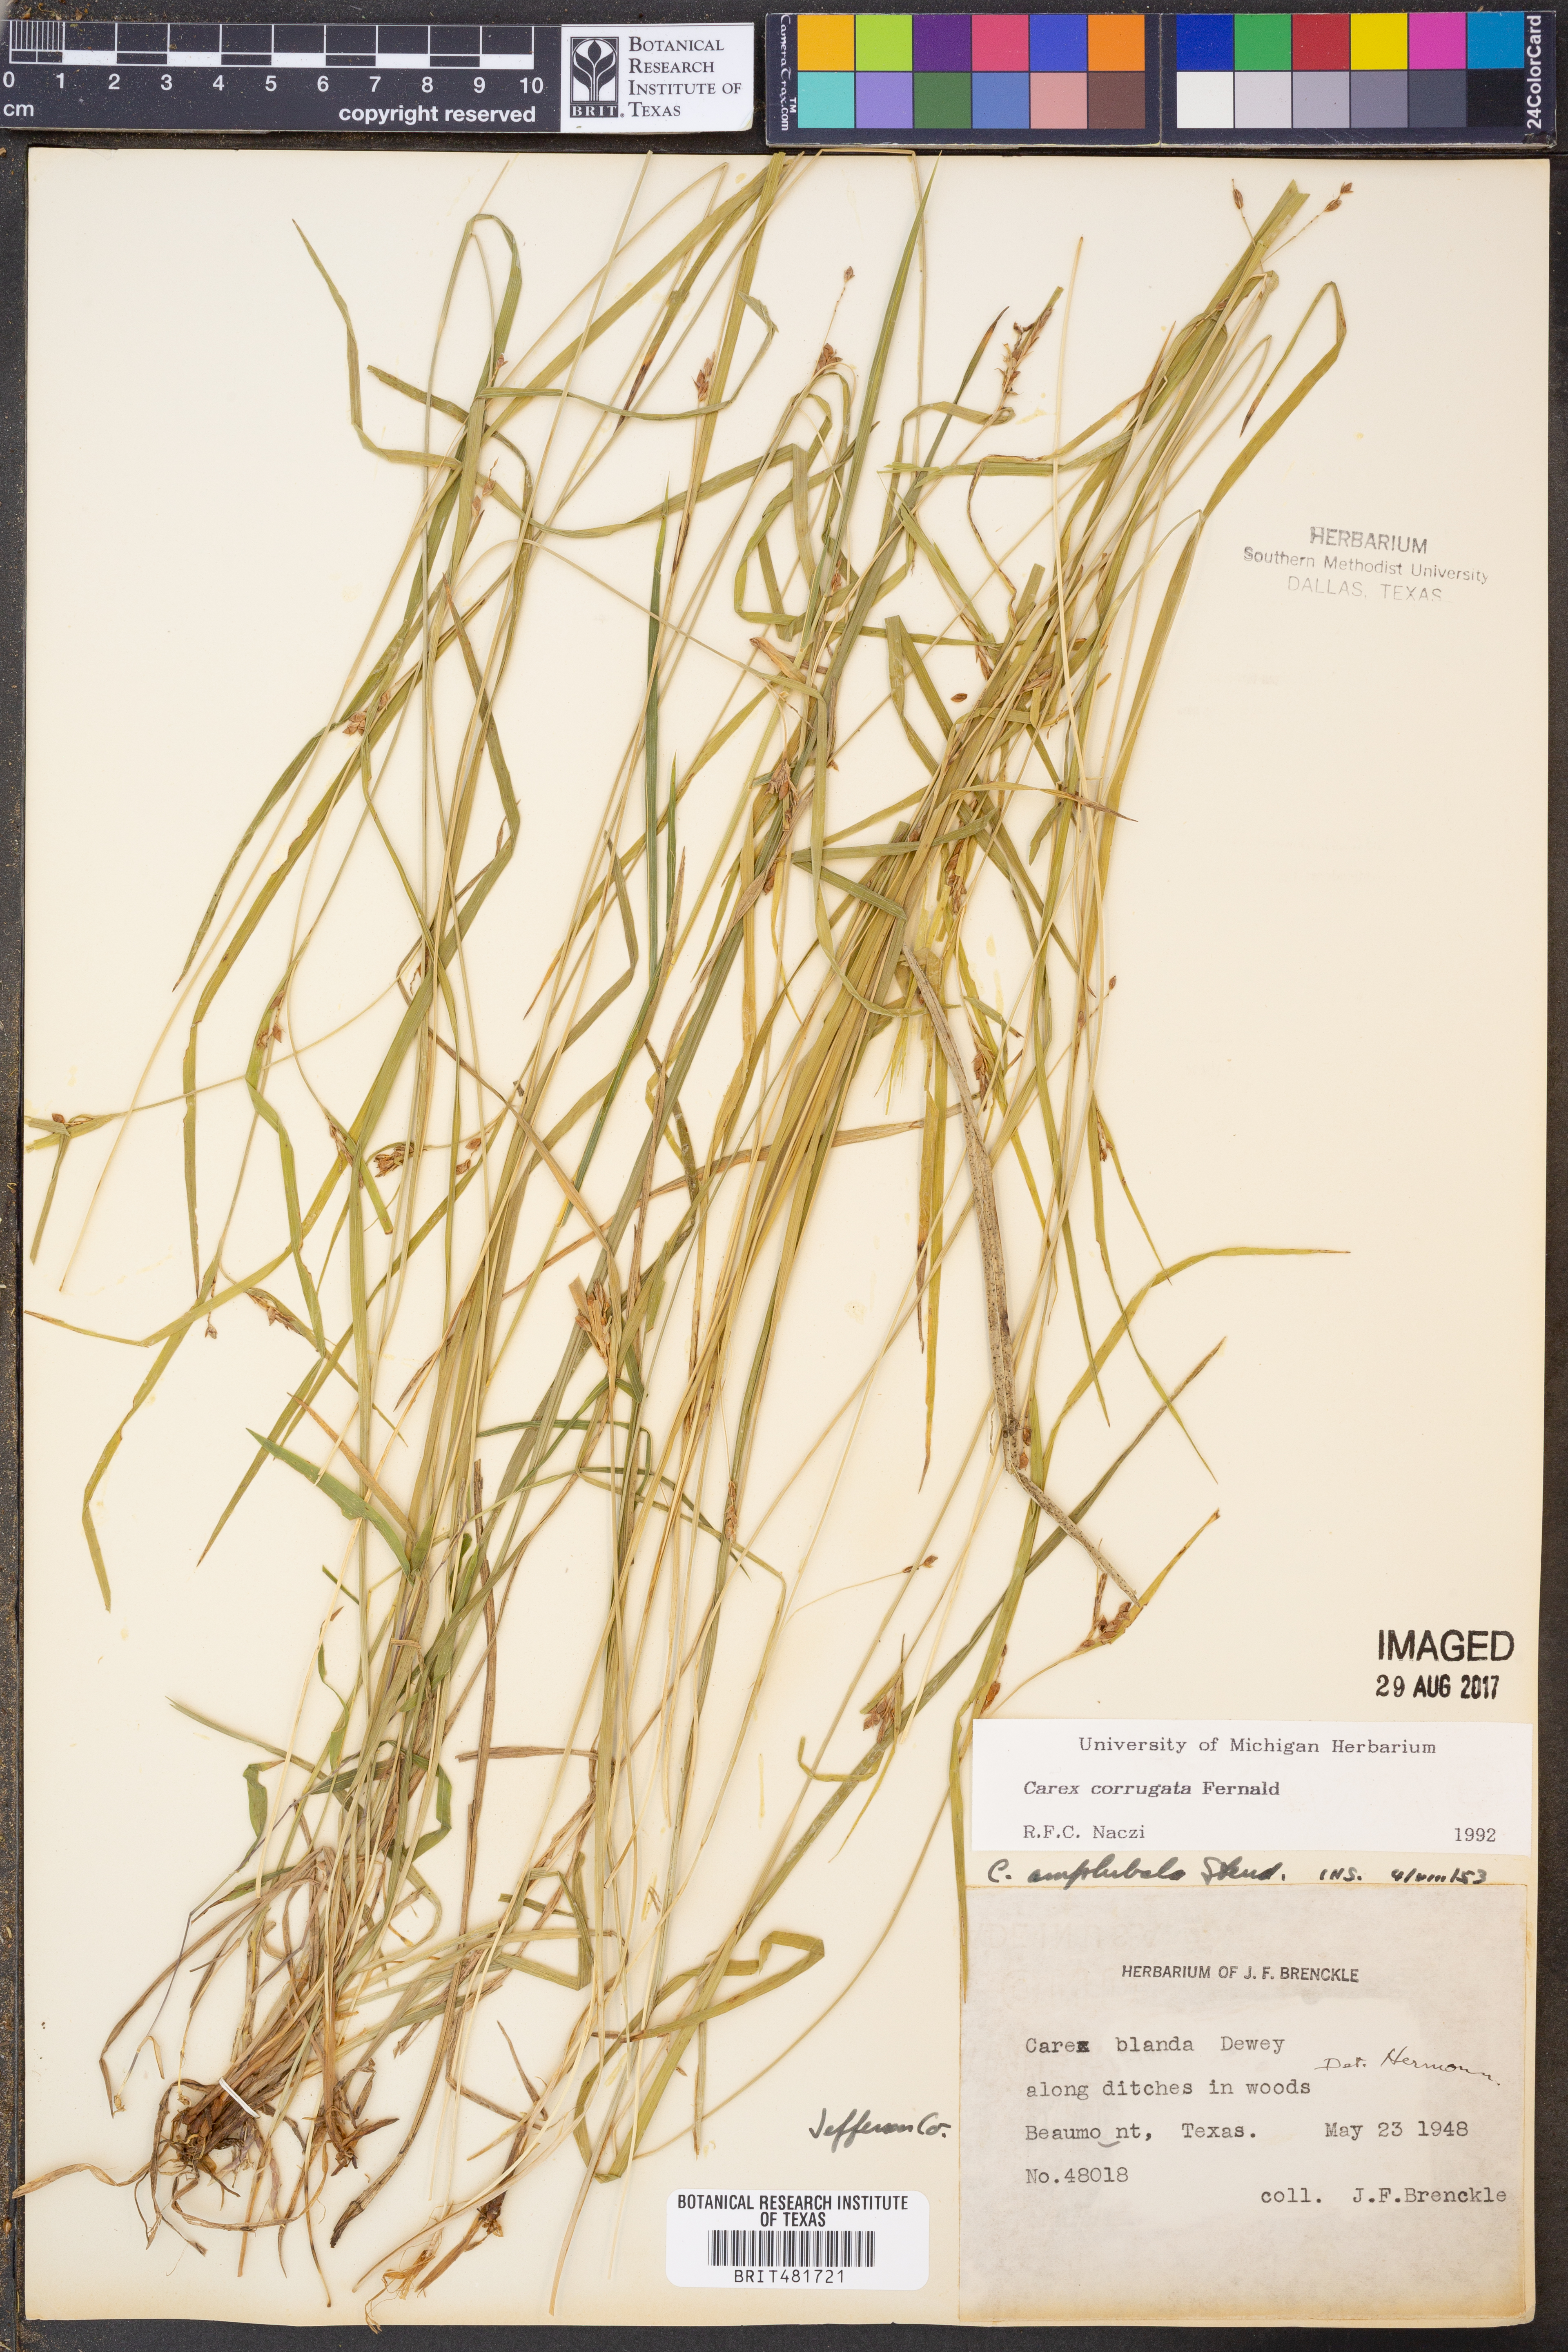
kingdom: Plantae
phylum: Tracheophyta
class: Liliopsida
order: Poales
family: Cyperaceae
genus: Carex
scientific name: Carex corrugata
